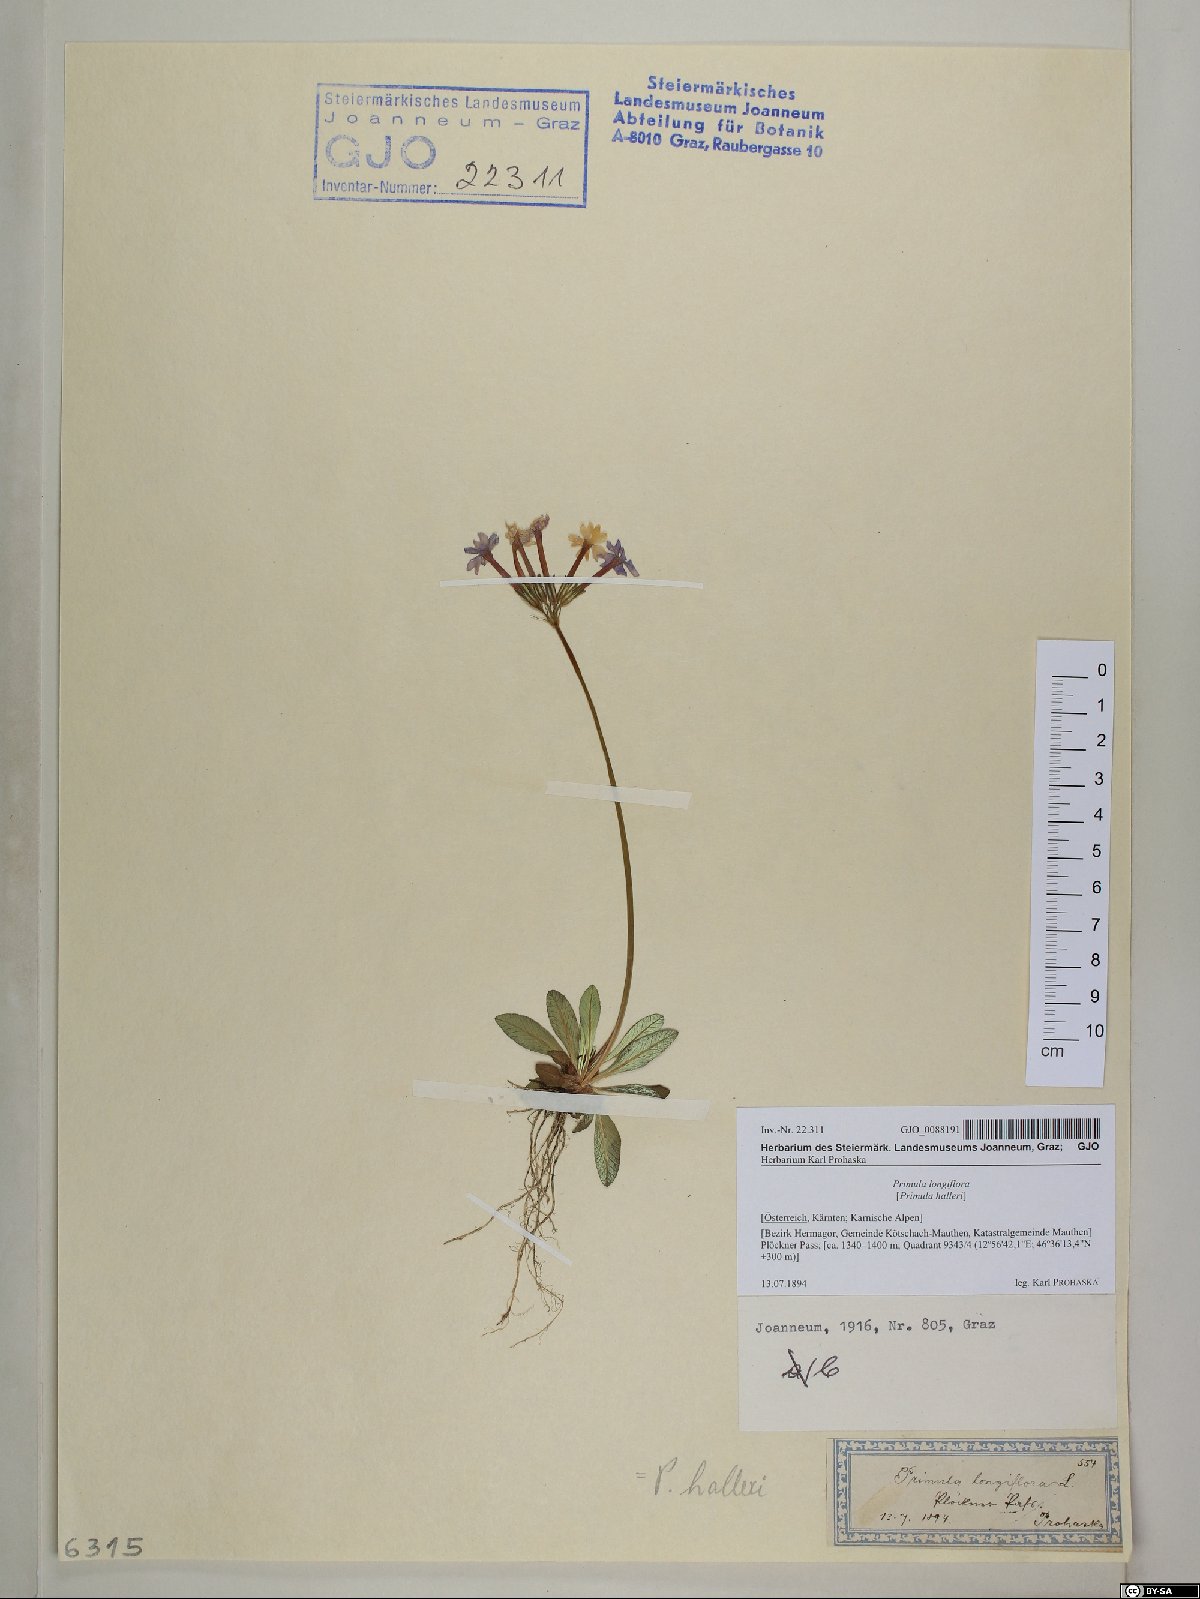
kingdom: Plantae
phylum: Tracheophyta
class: Magnoliopsida
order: Ericales
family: Primulaceae
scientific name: Primulaceae
